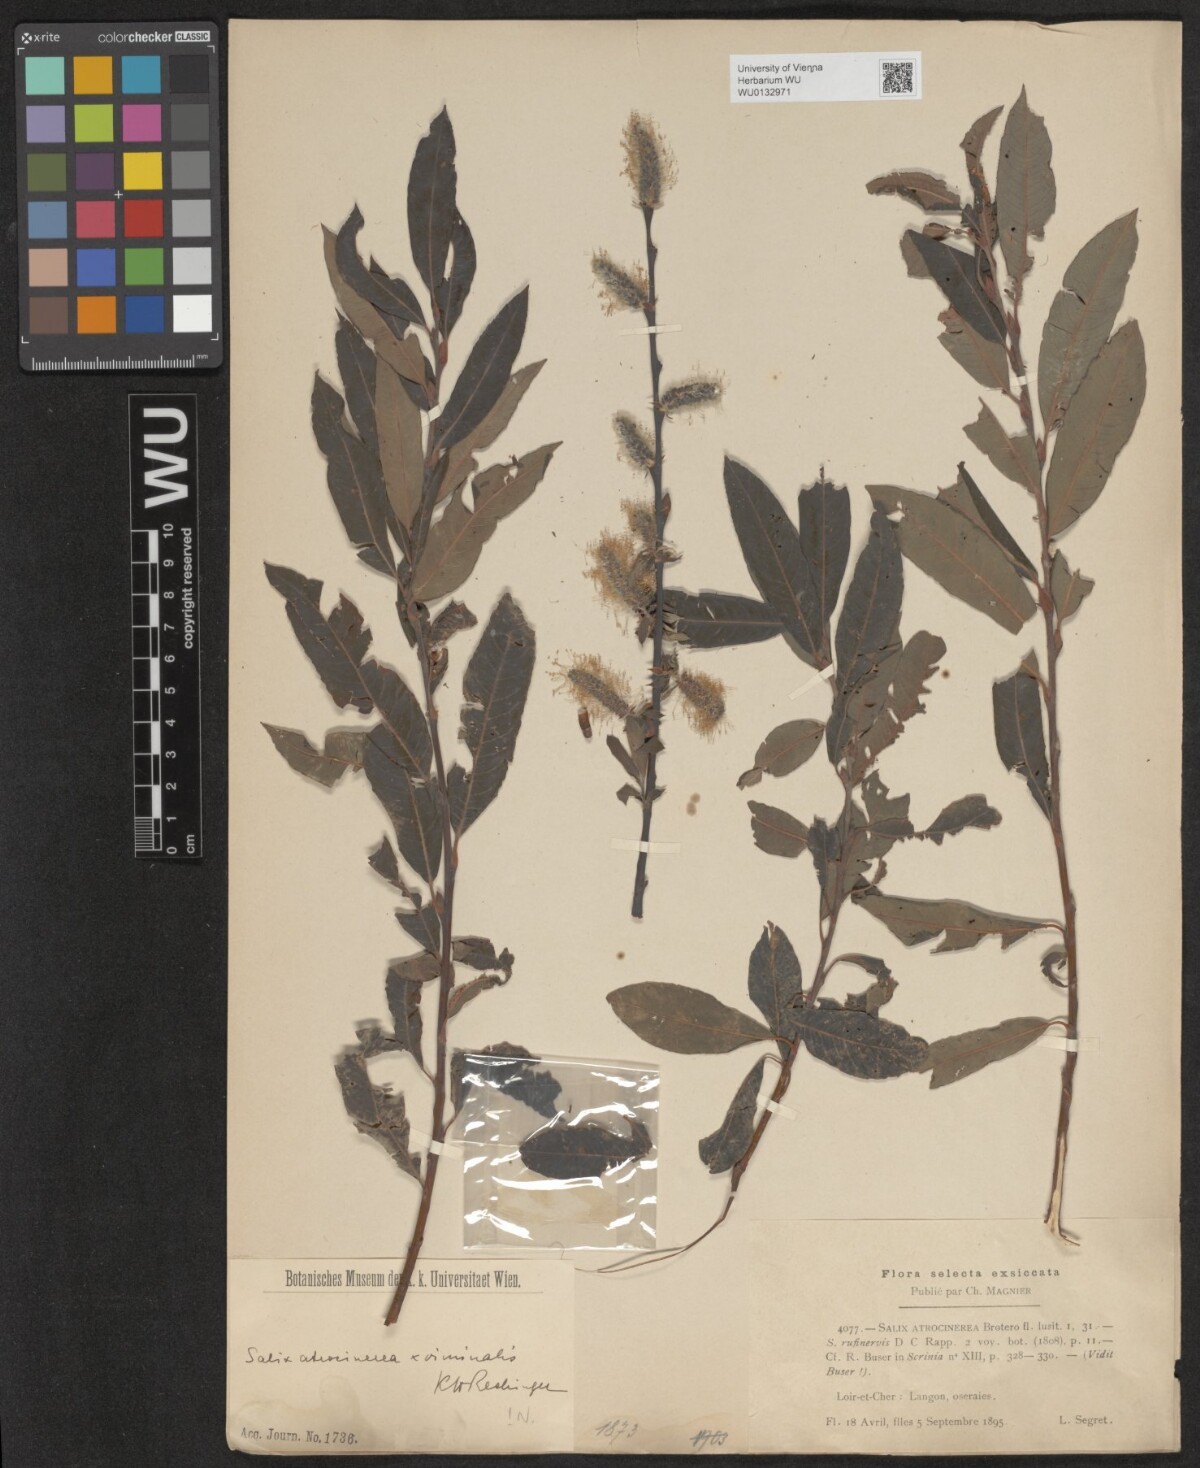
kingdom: Plantae
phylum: Tracheophyta
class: Magnoliopsida
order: Malpighiales
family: Salicaceae
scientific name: Salicaceae
